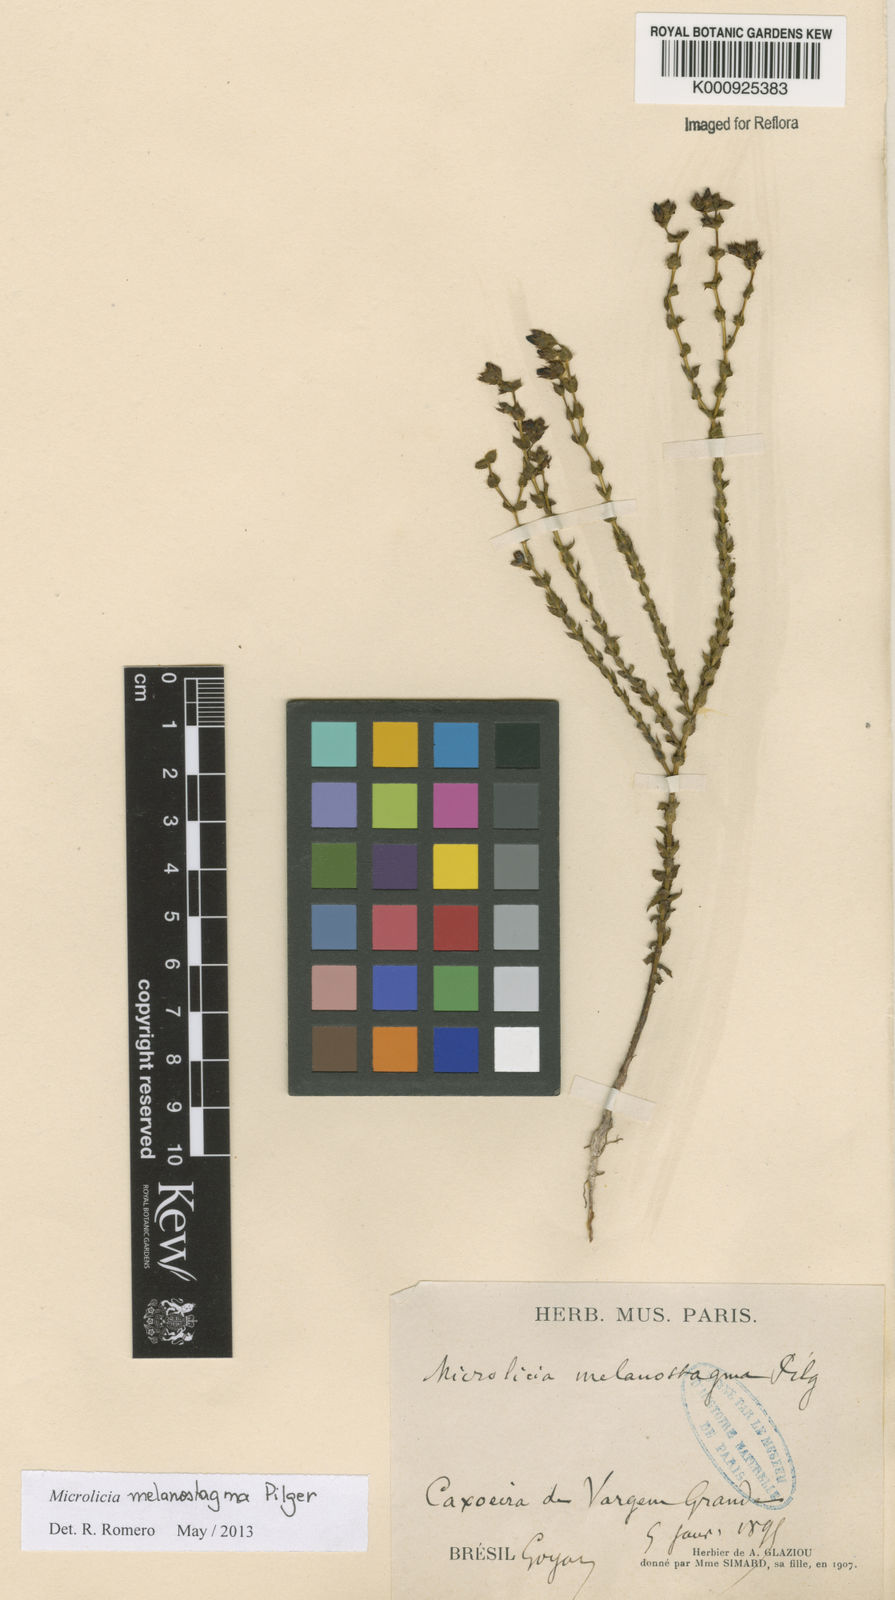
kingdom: Plantae
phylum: Tracheophyta
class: Magnoliopsida
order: Myrtales
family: Melastomataceae
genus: Microlicia
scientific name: Microlicia melanostagma
